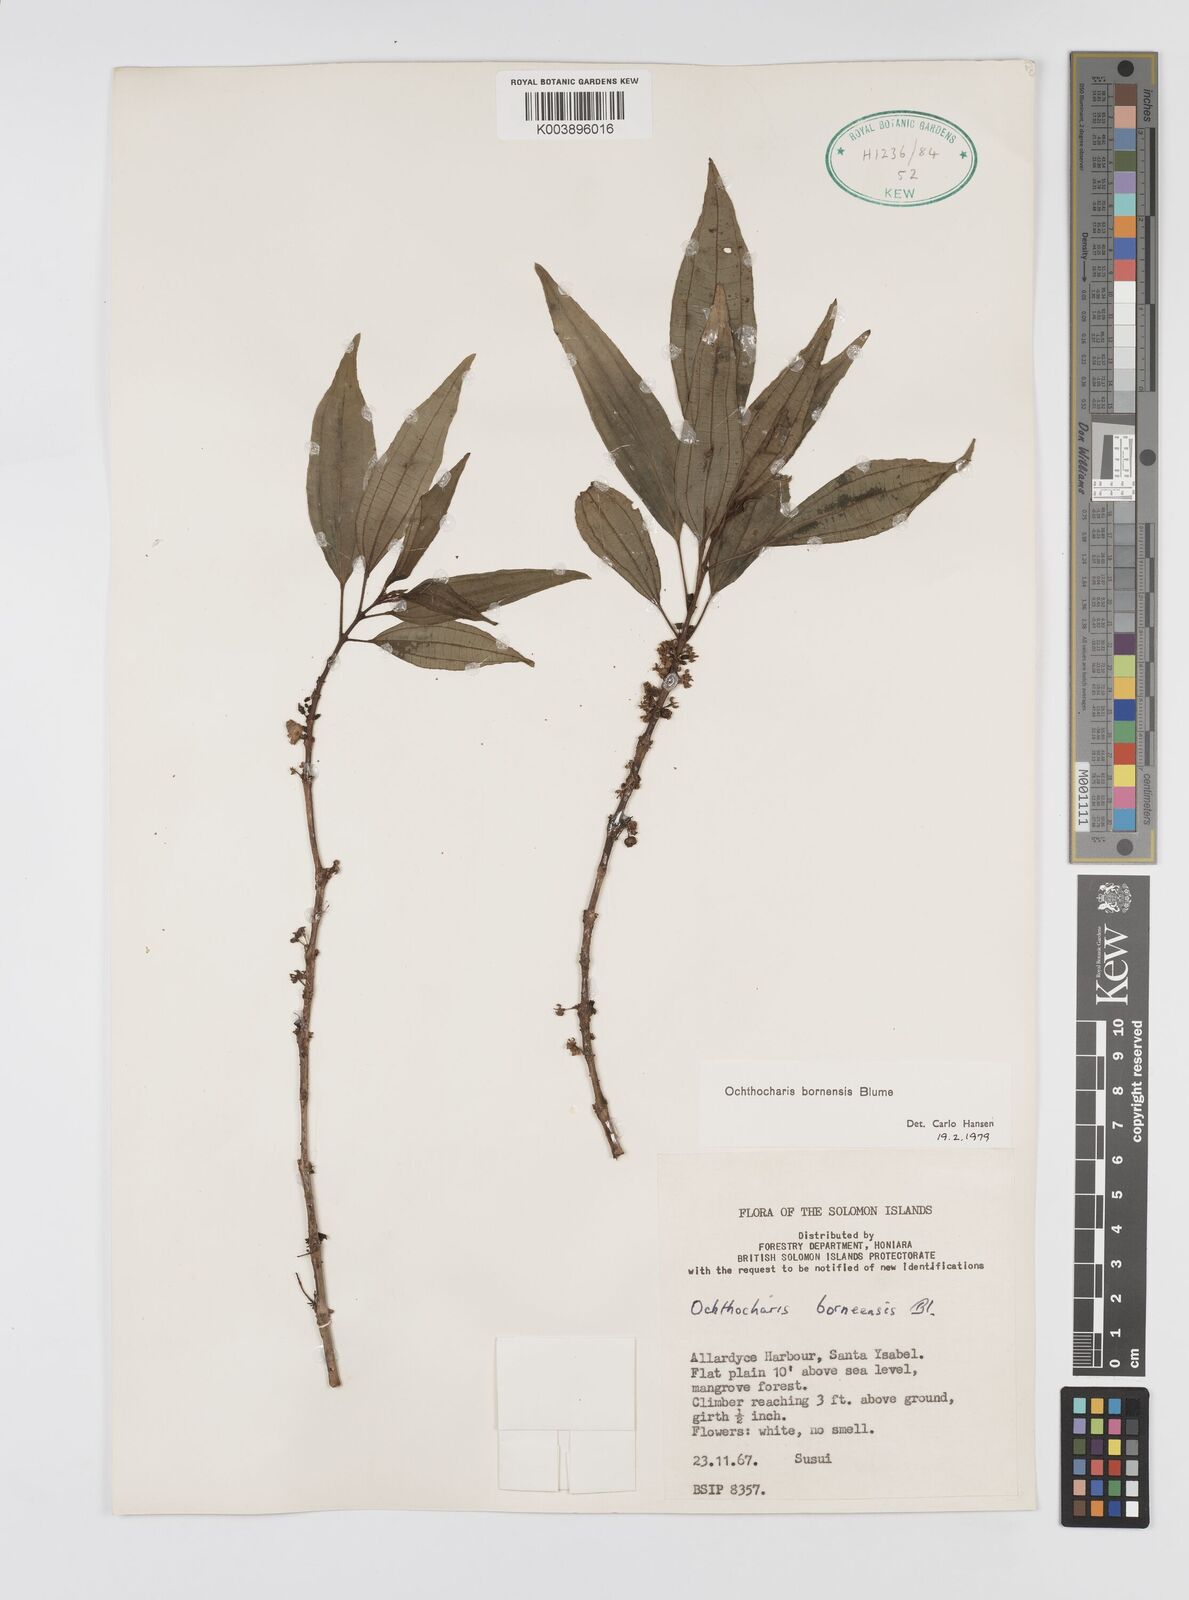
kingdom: Plantae
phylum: Tracheophyta
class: Magnoliopsida
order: Myrtales
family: Melastomataceae
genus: Ochthocharis
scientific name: Ochthocharis bornensis
